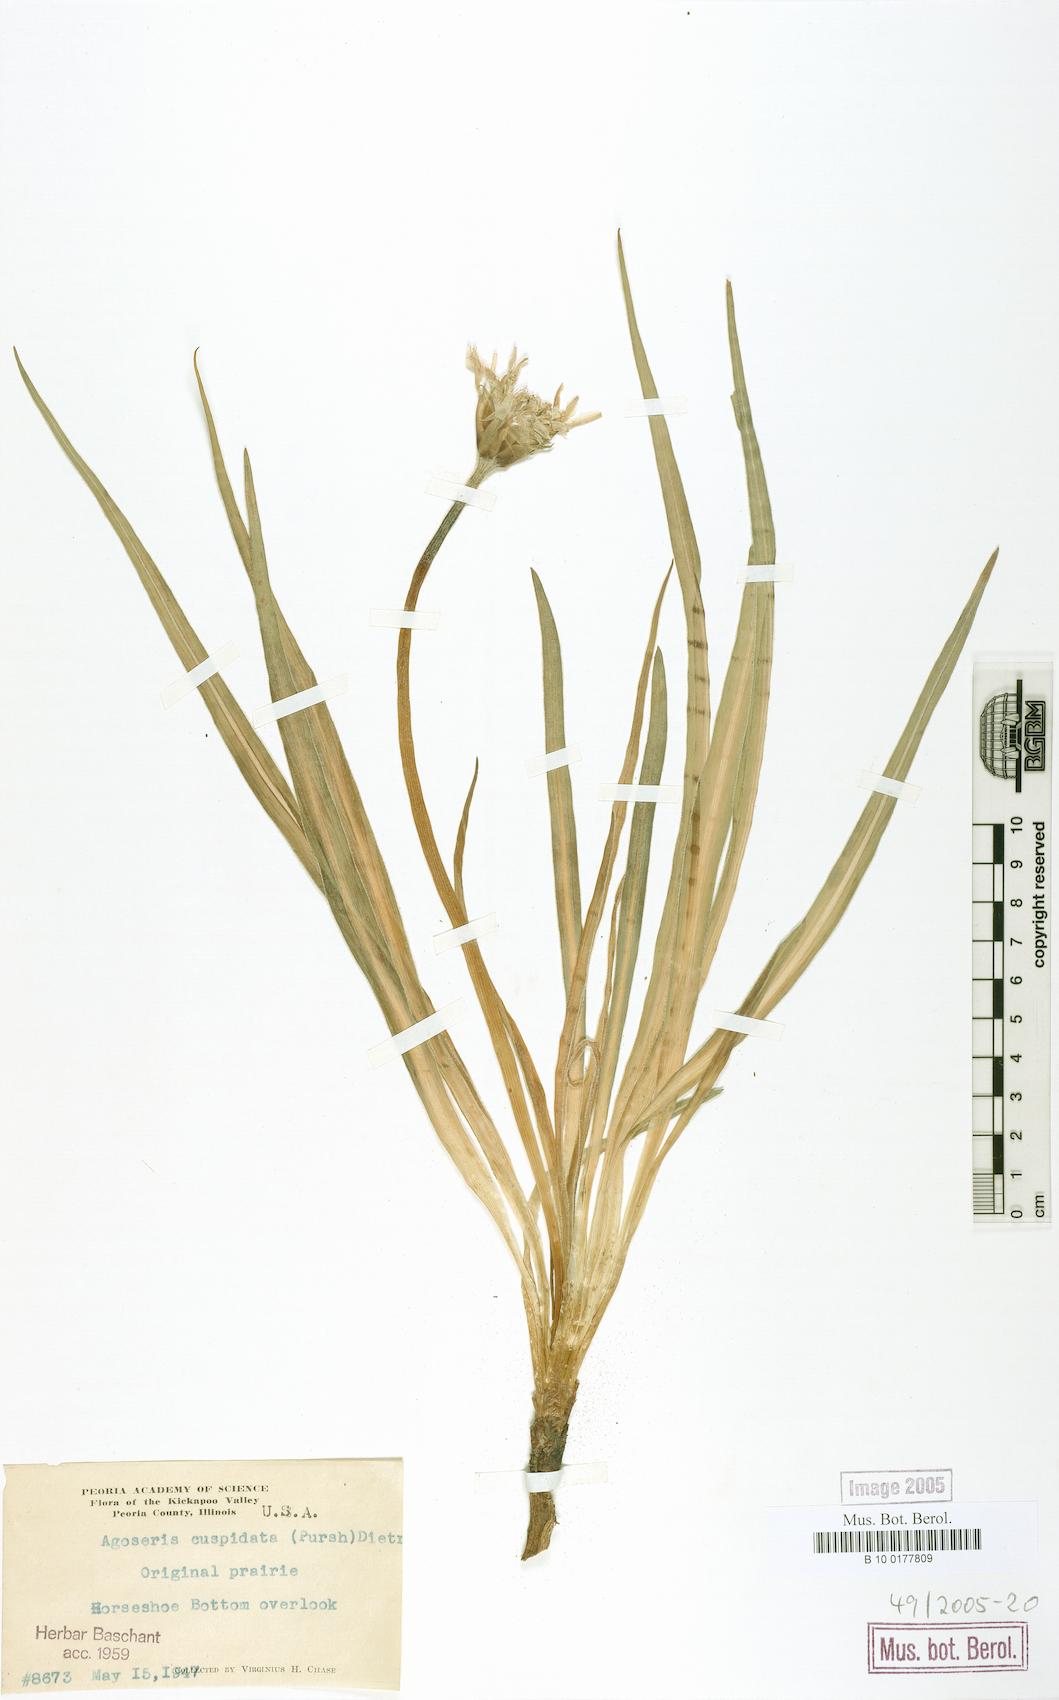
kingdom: Plantae
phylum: Tracheophyta
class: Magnoliopsida
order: Asterales
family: Asteraceae
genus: Microseris
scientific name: Microseris cuspidata
